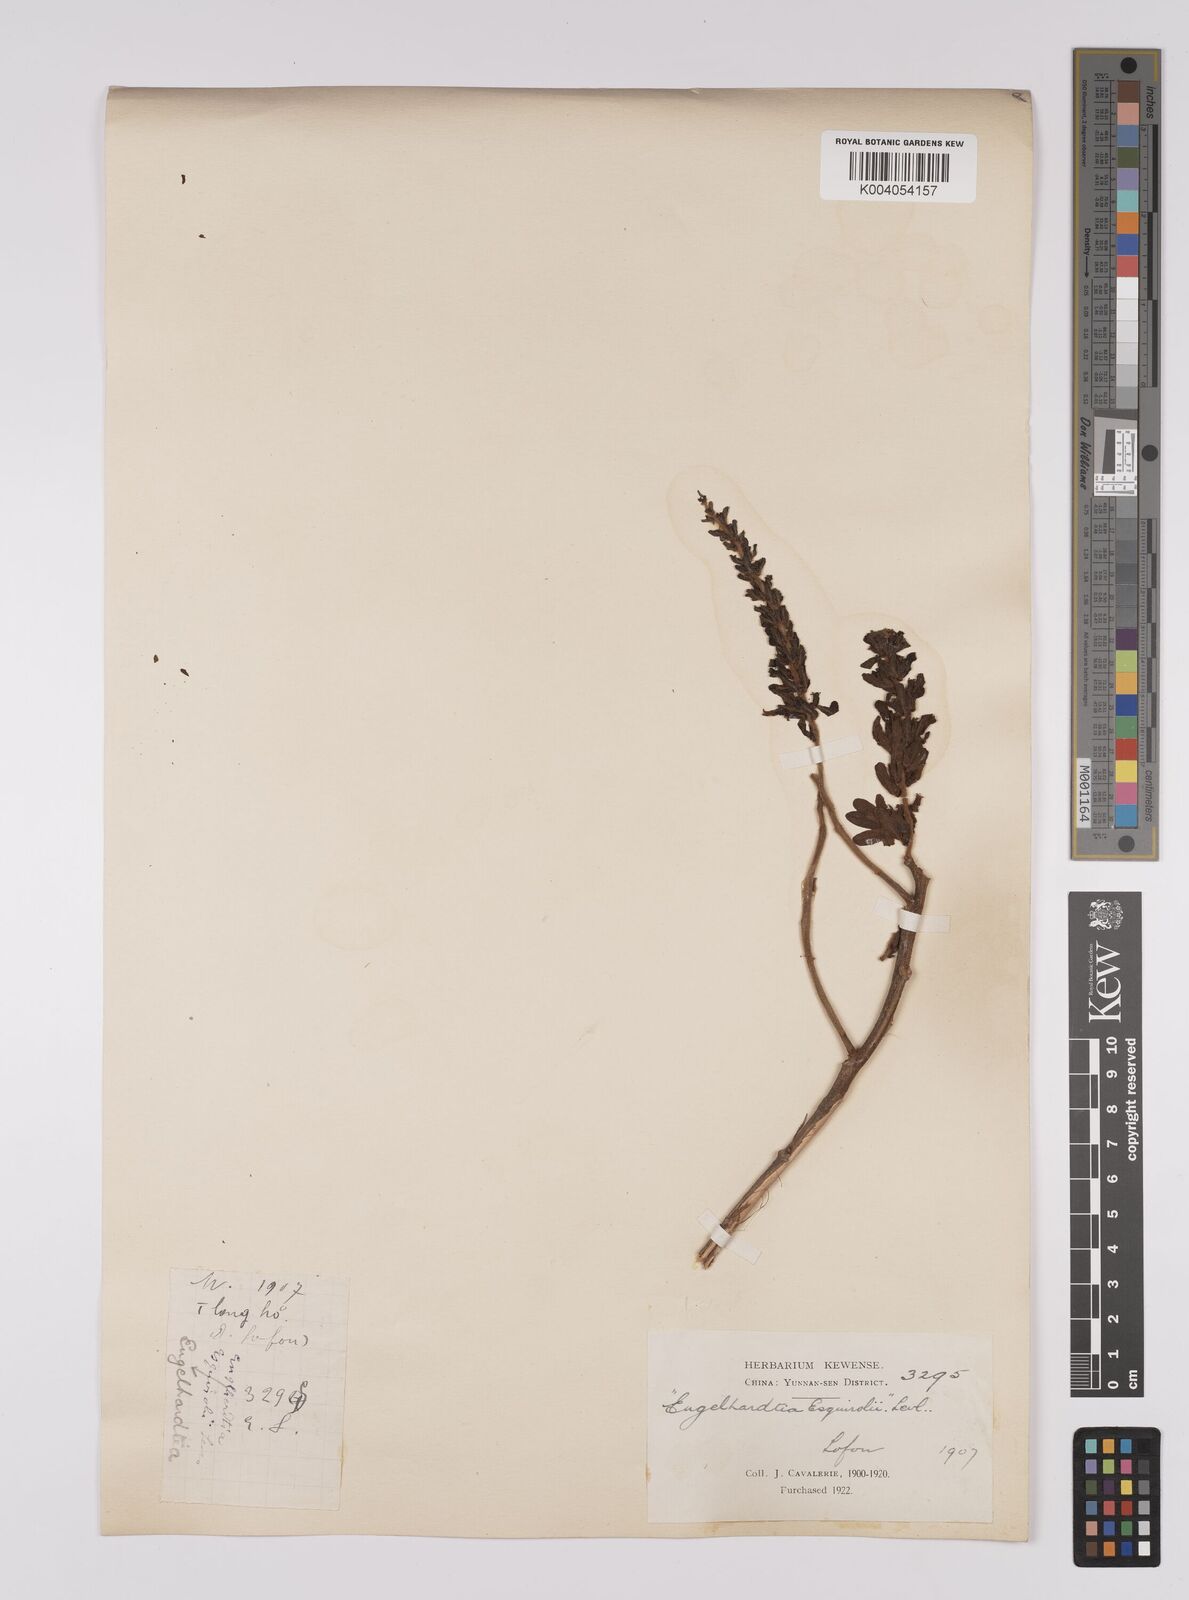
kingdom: Plantae
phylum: Tracheophyta
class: Magnoliopsida
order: Fagales
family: Juglandaceae
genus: Engelhardia
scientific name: Engelhardia spicata
